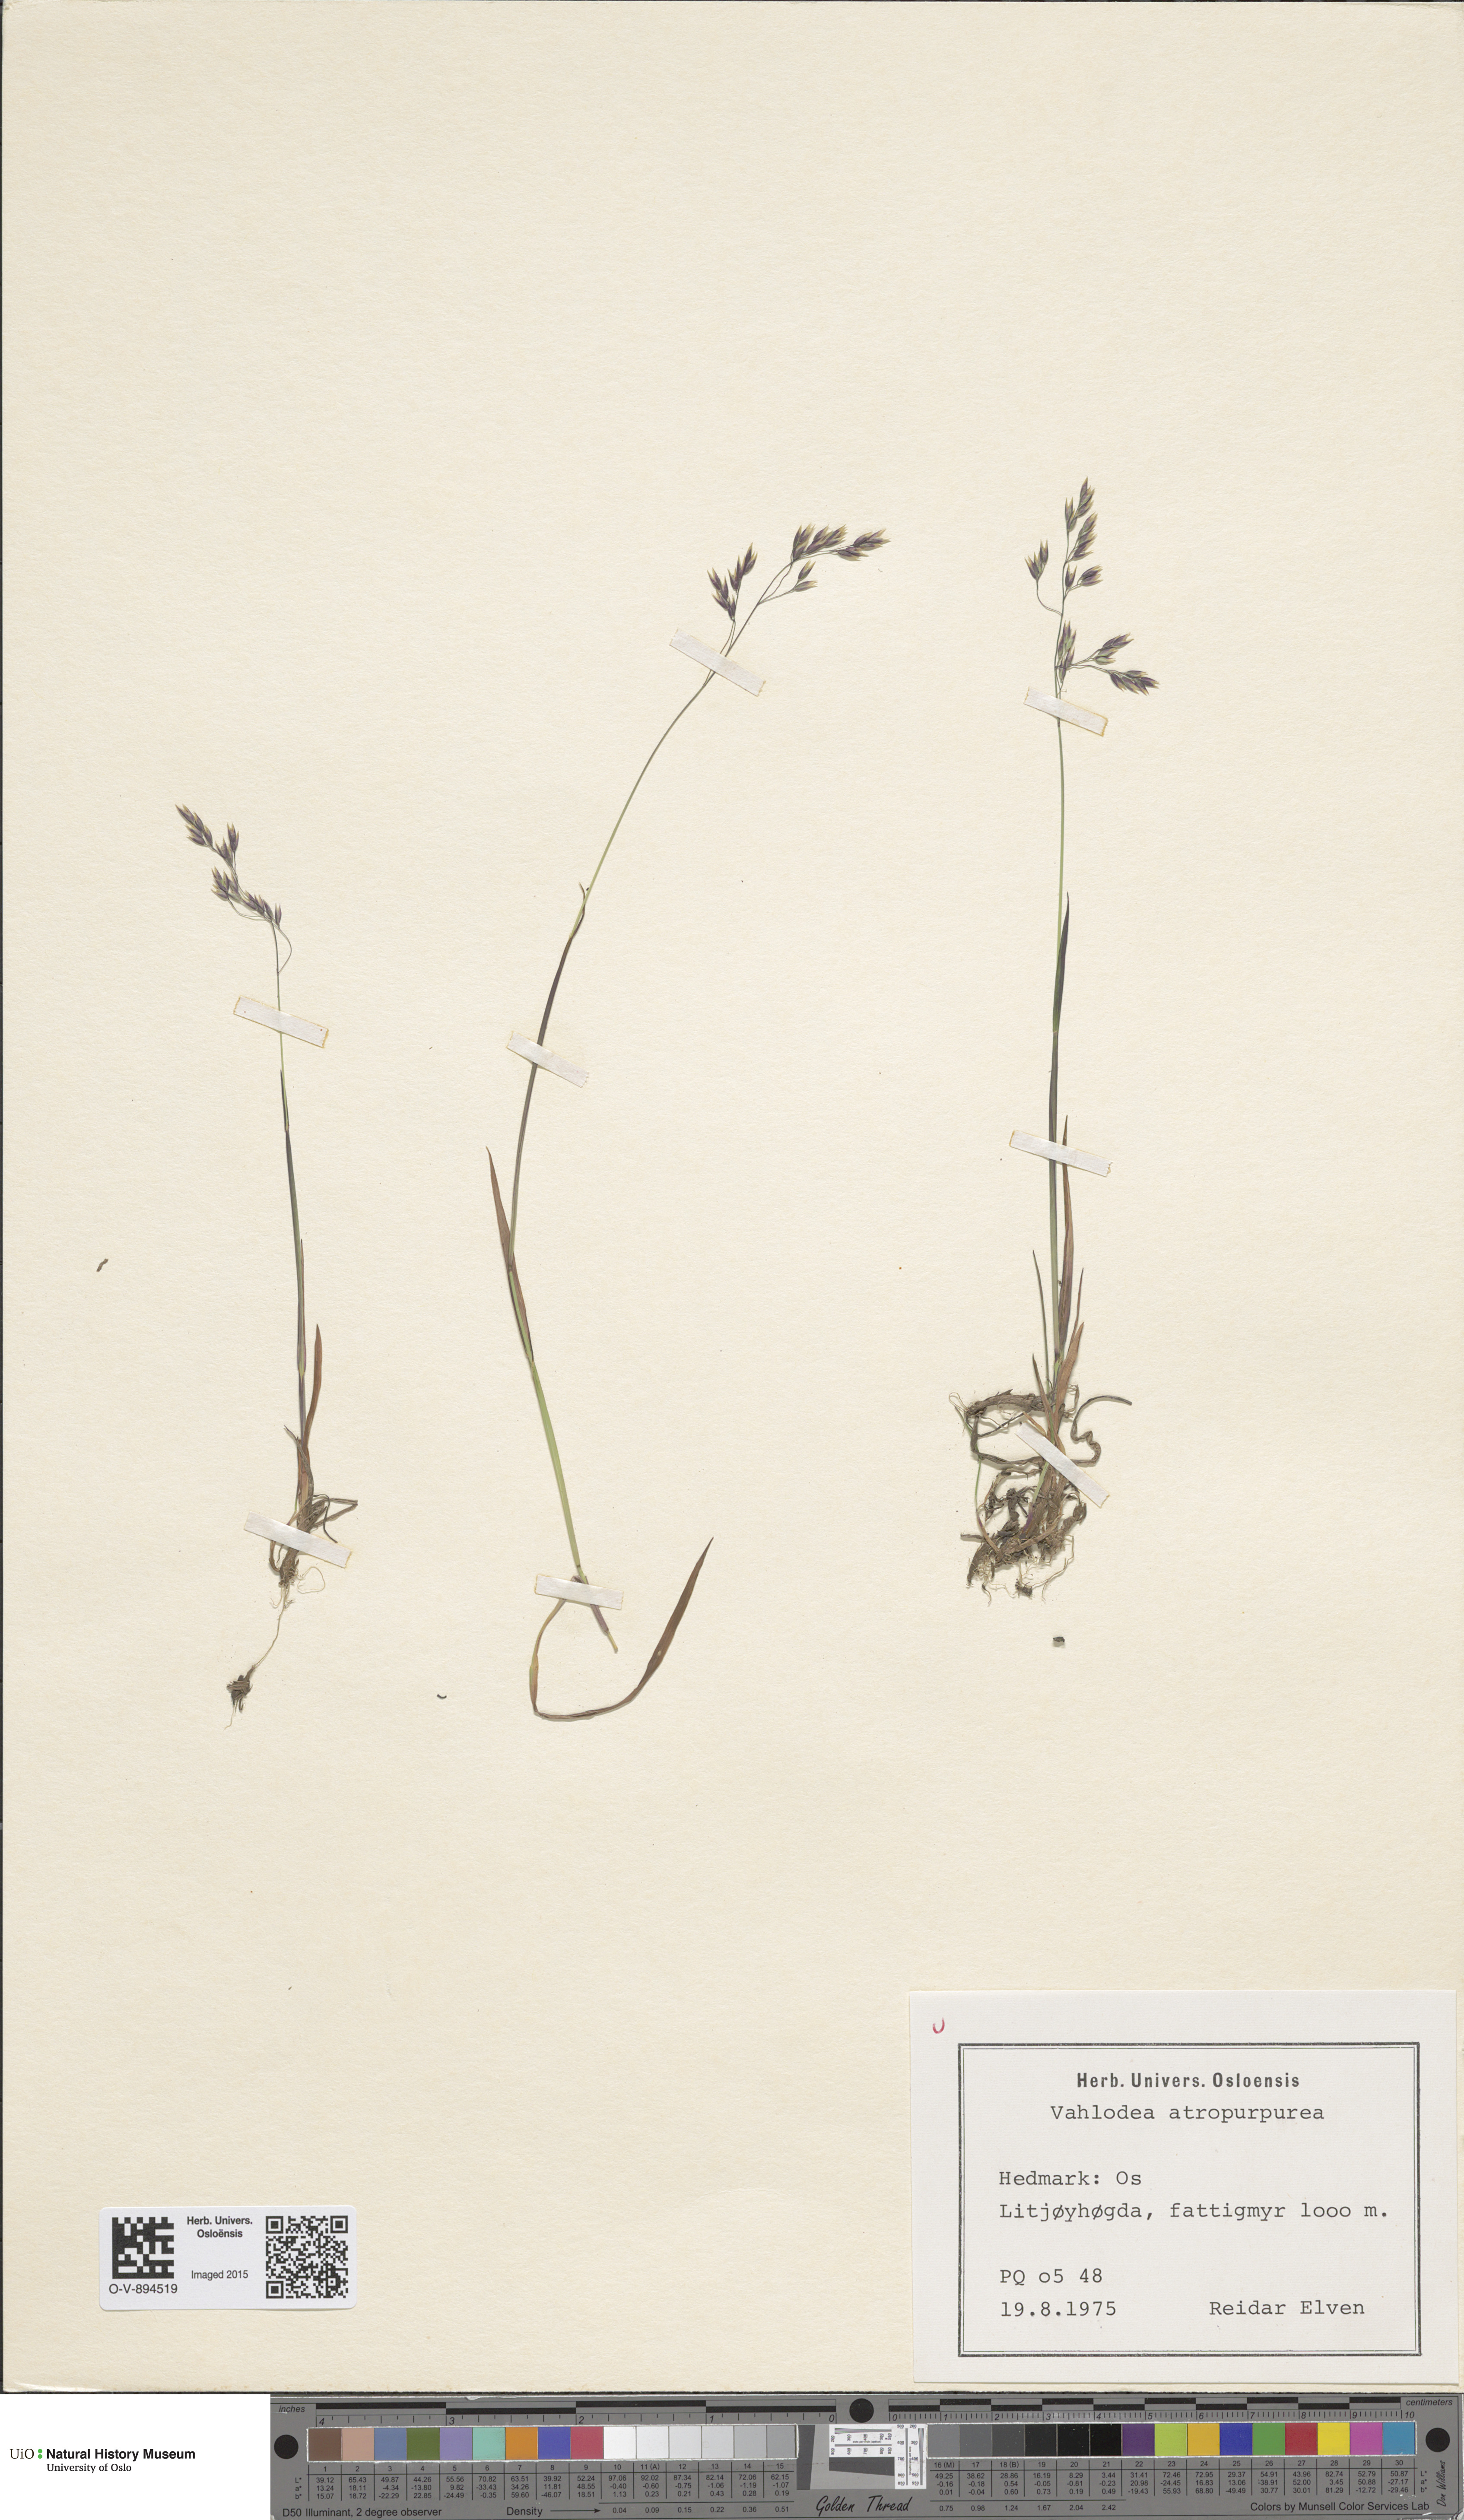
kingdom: Plantae
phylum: Tracheophyta
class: Liliopsida
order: Poales
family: Poaceae
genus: Vahlodea
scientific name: Vahlodea atropurpurea
